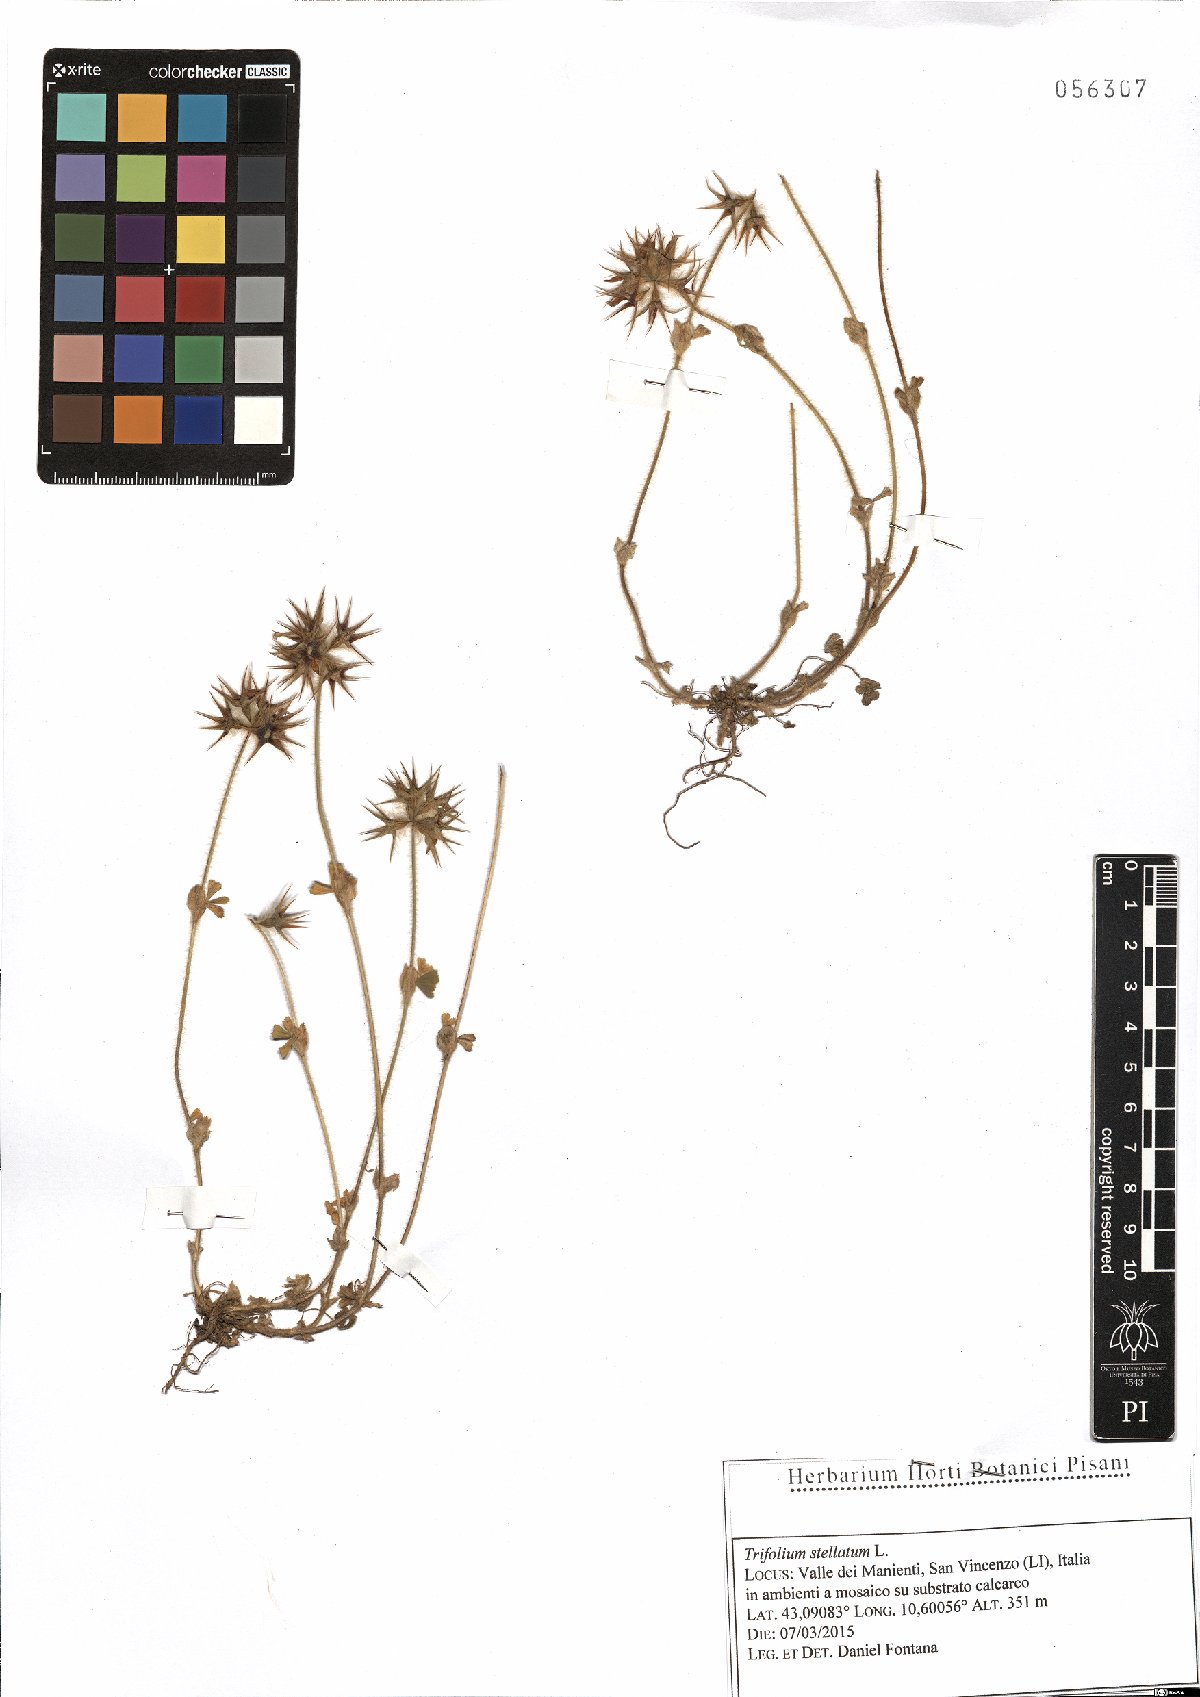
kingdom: Plantae
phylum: Tracheophyta
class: Magnoliopsida
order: Fabales
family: Fabaceae
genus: Trifolium
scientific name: Trifolium stellatum
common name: Starry clover
